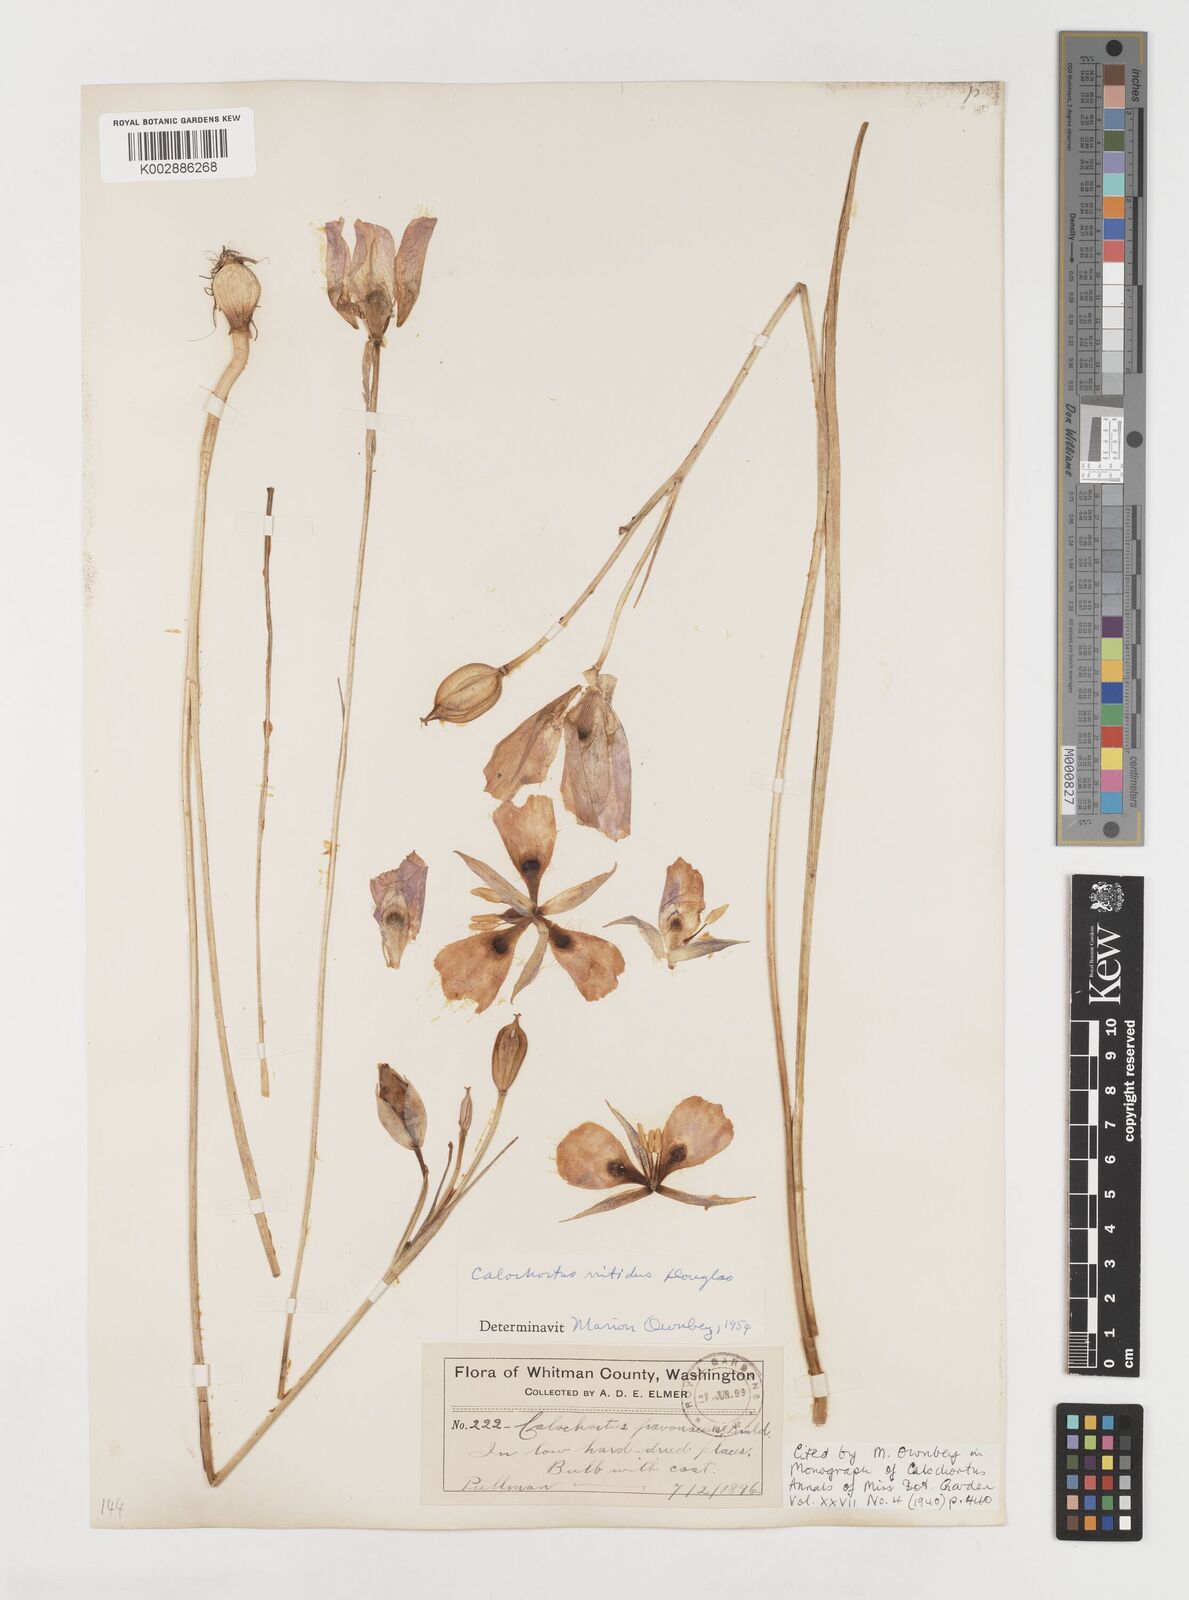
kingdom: Plantae
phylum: Tracheophyta
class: Liliopsida
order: Liliales
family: Liliaceae
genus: Calochortus
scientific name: Calochortus monophyllus
